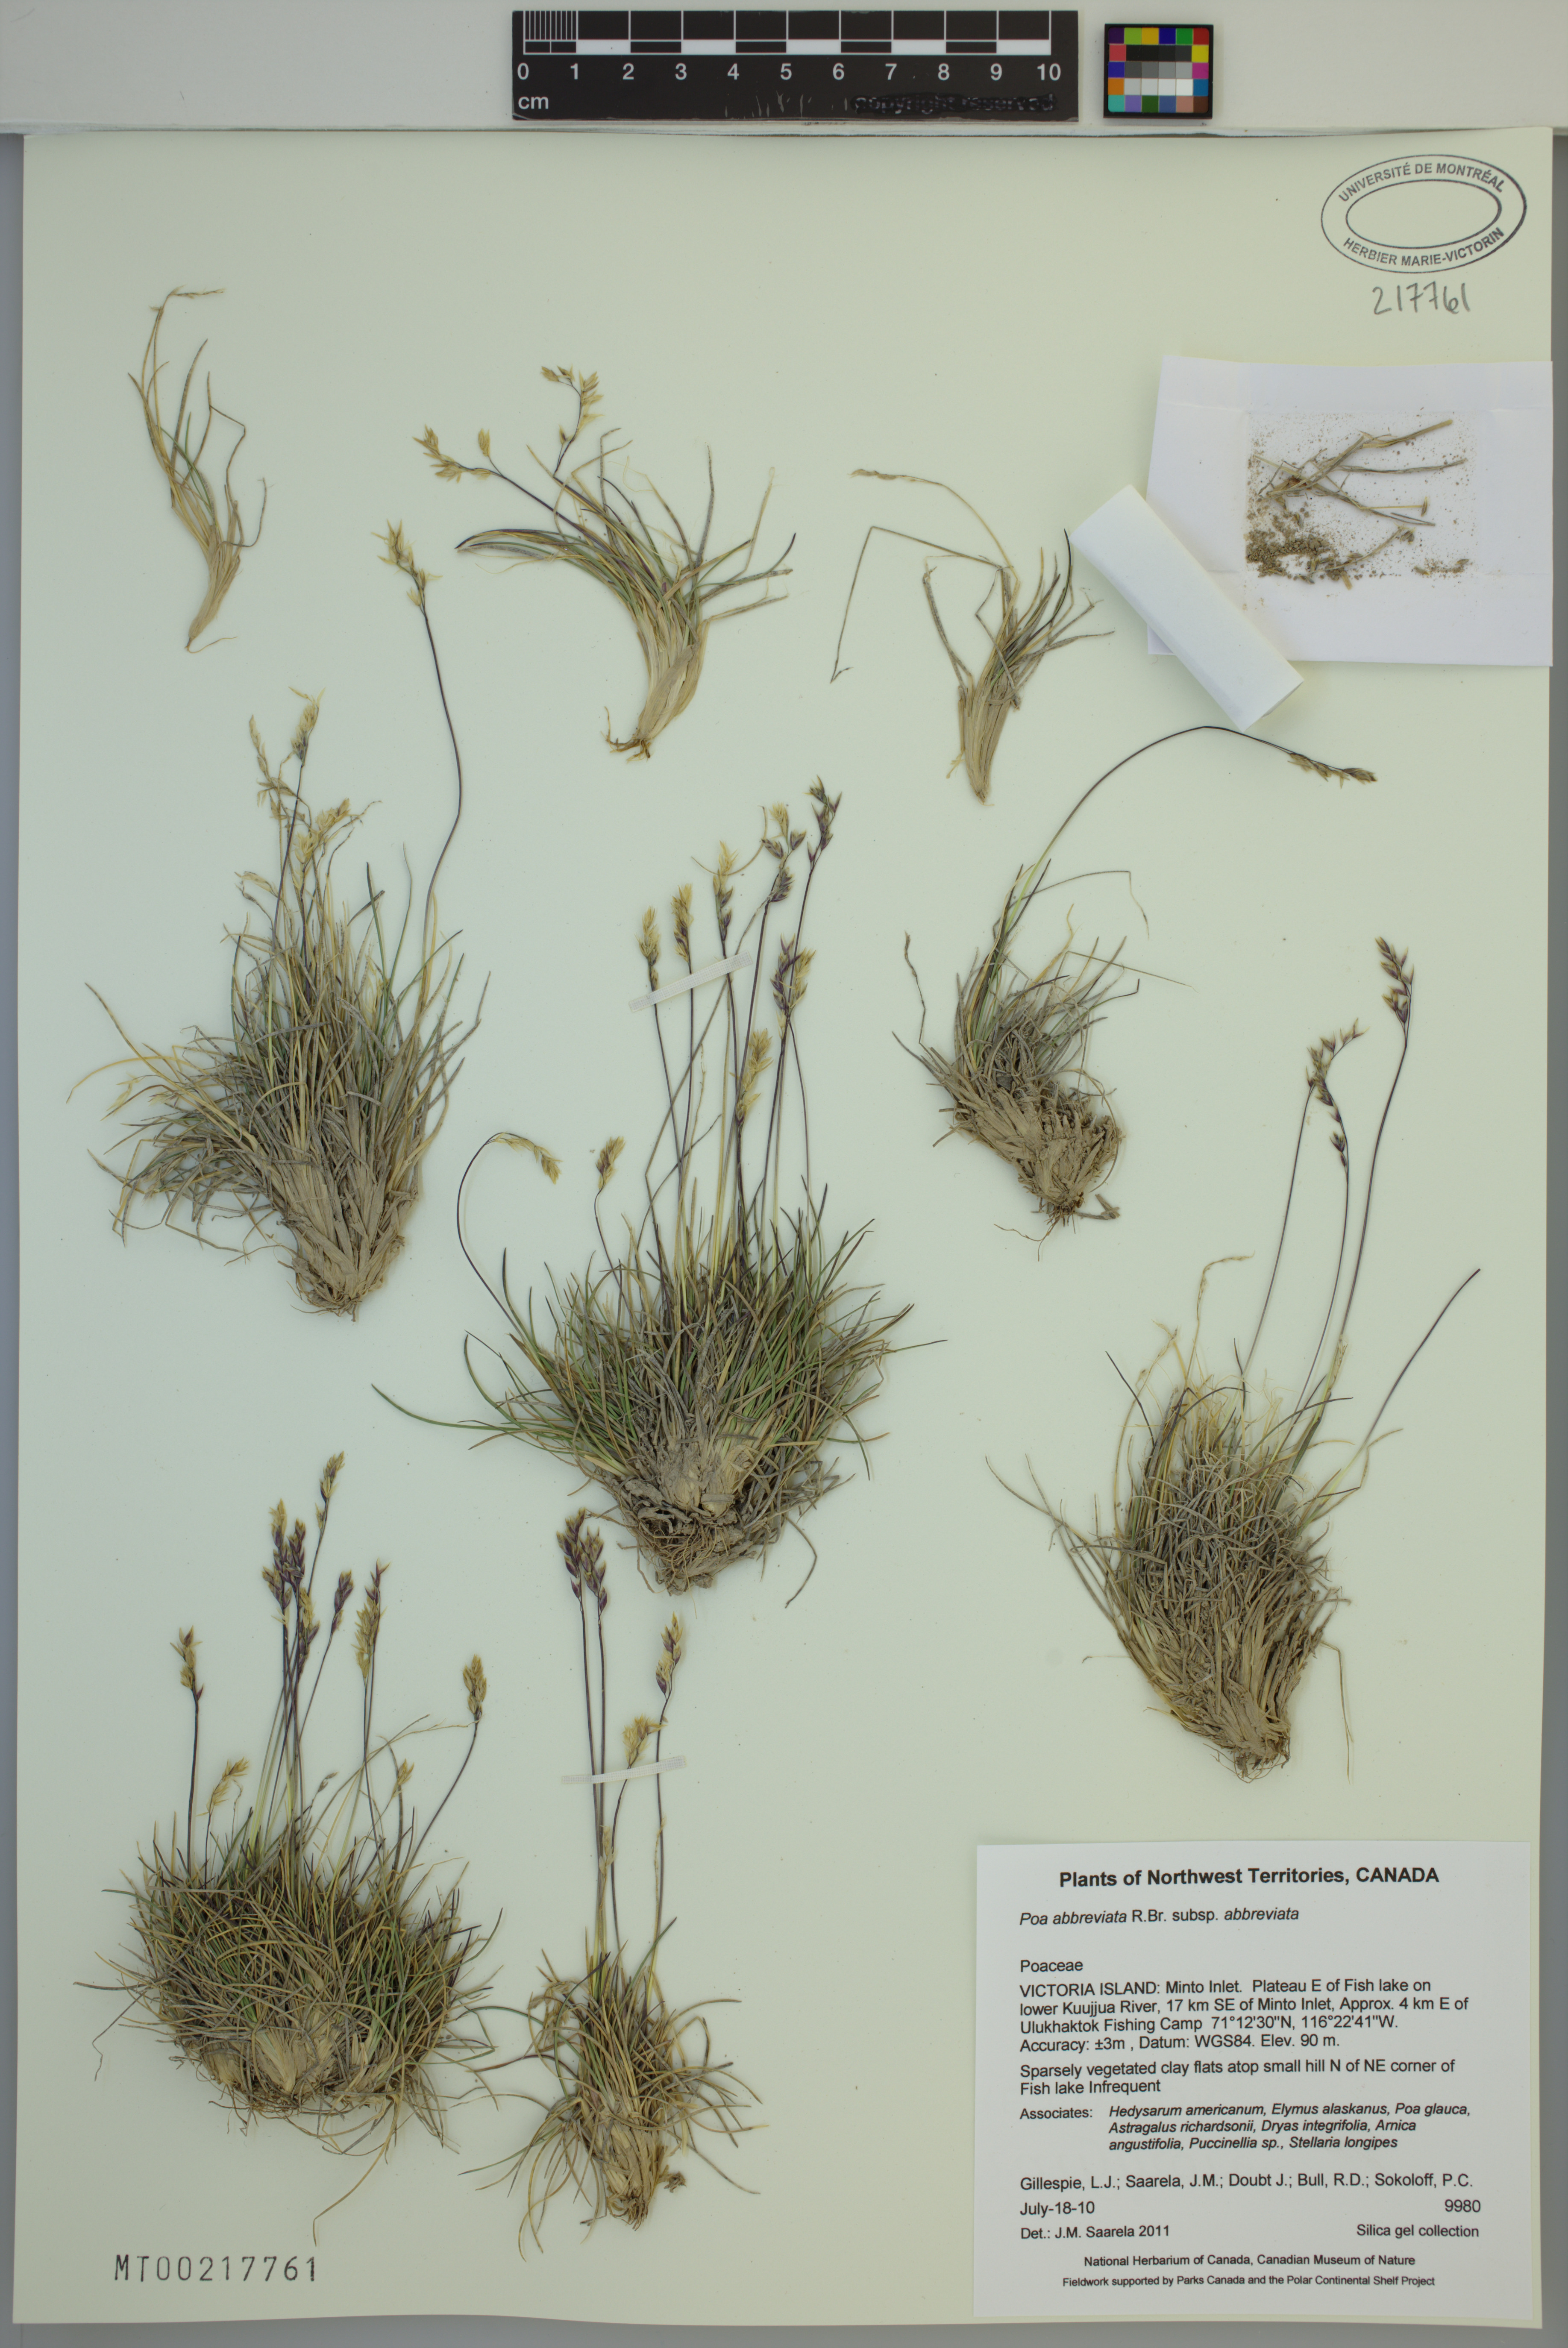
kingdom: Plantae
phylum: Tracheophyta
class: Liliopsida
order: Poales
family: Poaceae
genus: Poa
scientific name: Poa abbreviata
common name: Abbreviated bluegrass
